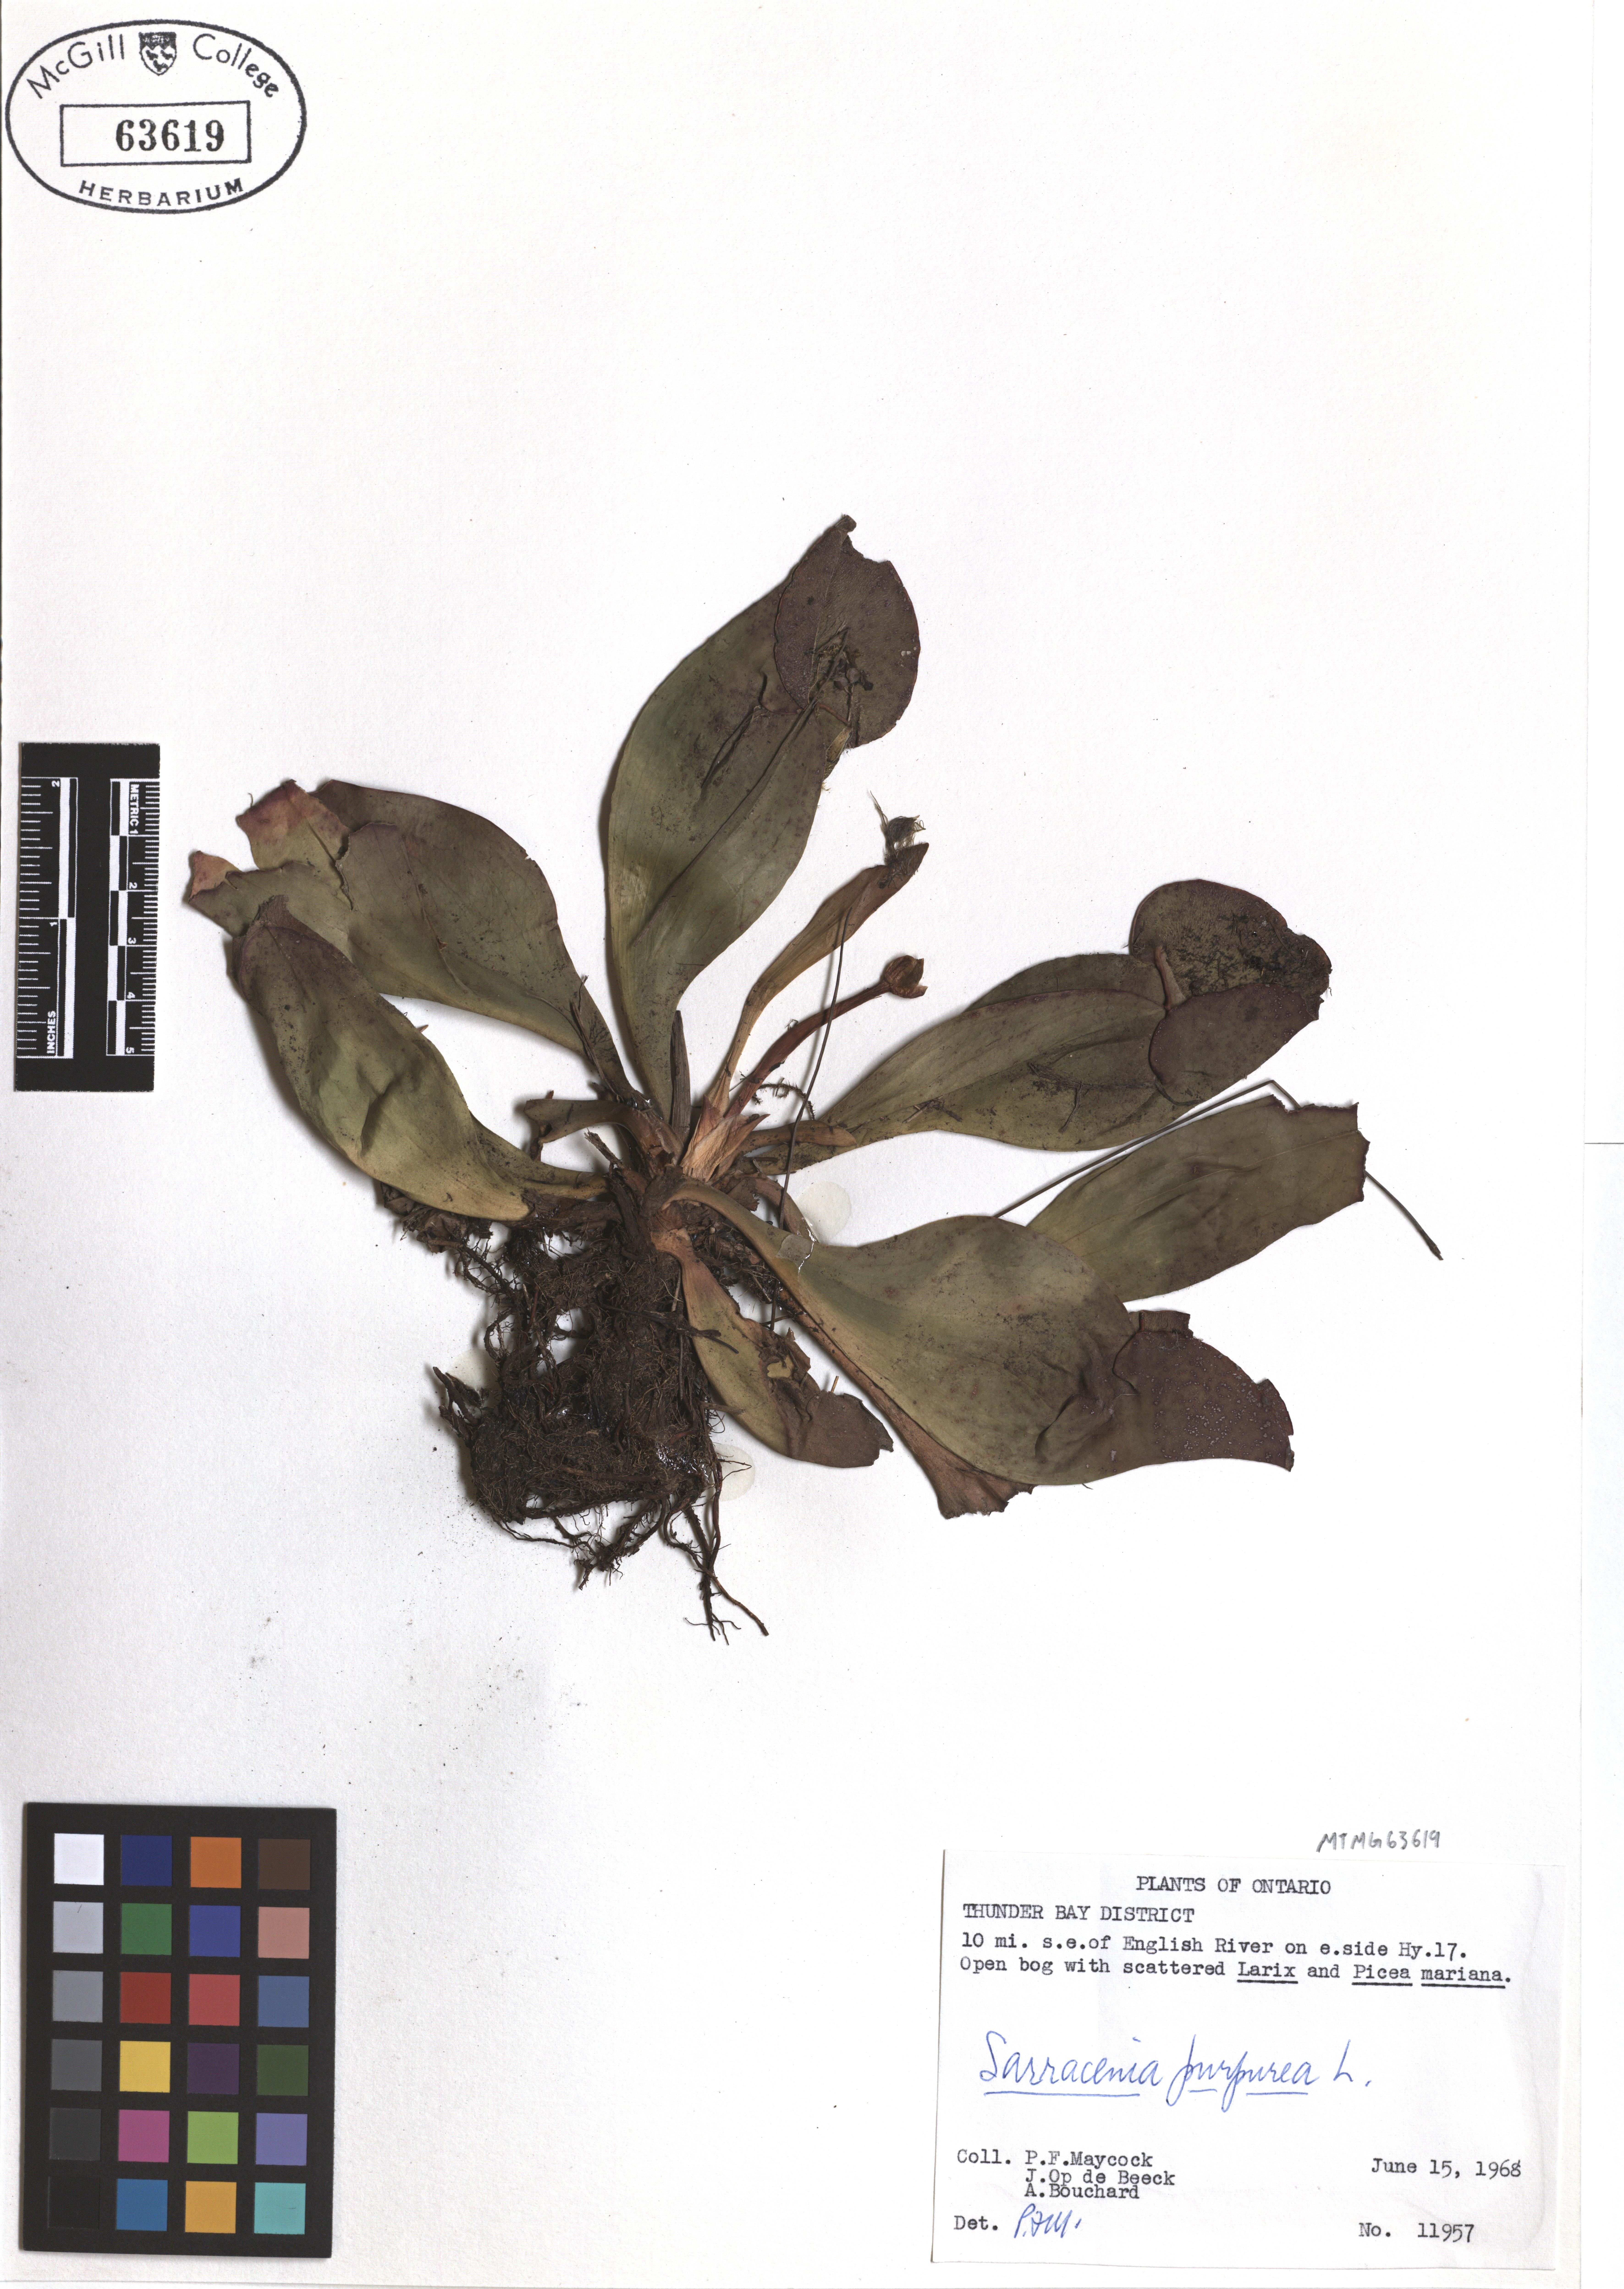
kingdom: Plantae
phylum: Tracheophyta
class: Magnoliopsida
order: Ericales
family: Sarraceniaceae
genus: Sarracenia
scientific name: Sarracenia purpurea
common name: Pitcherplant
